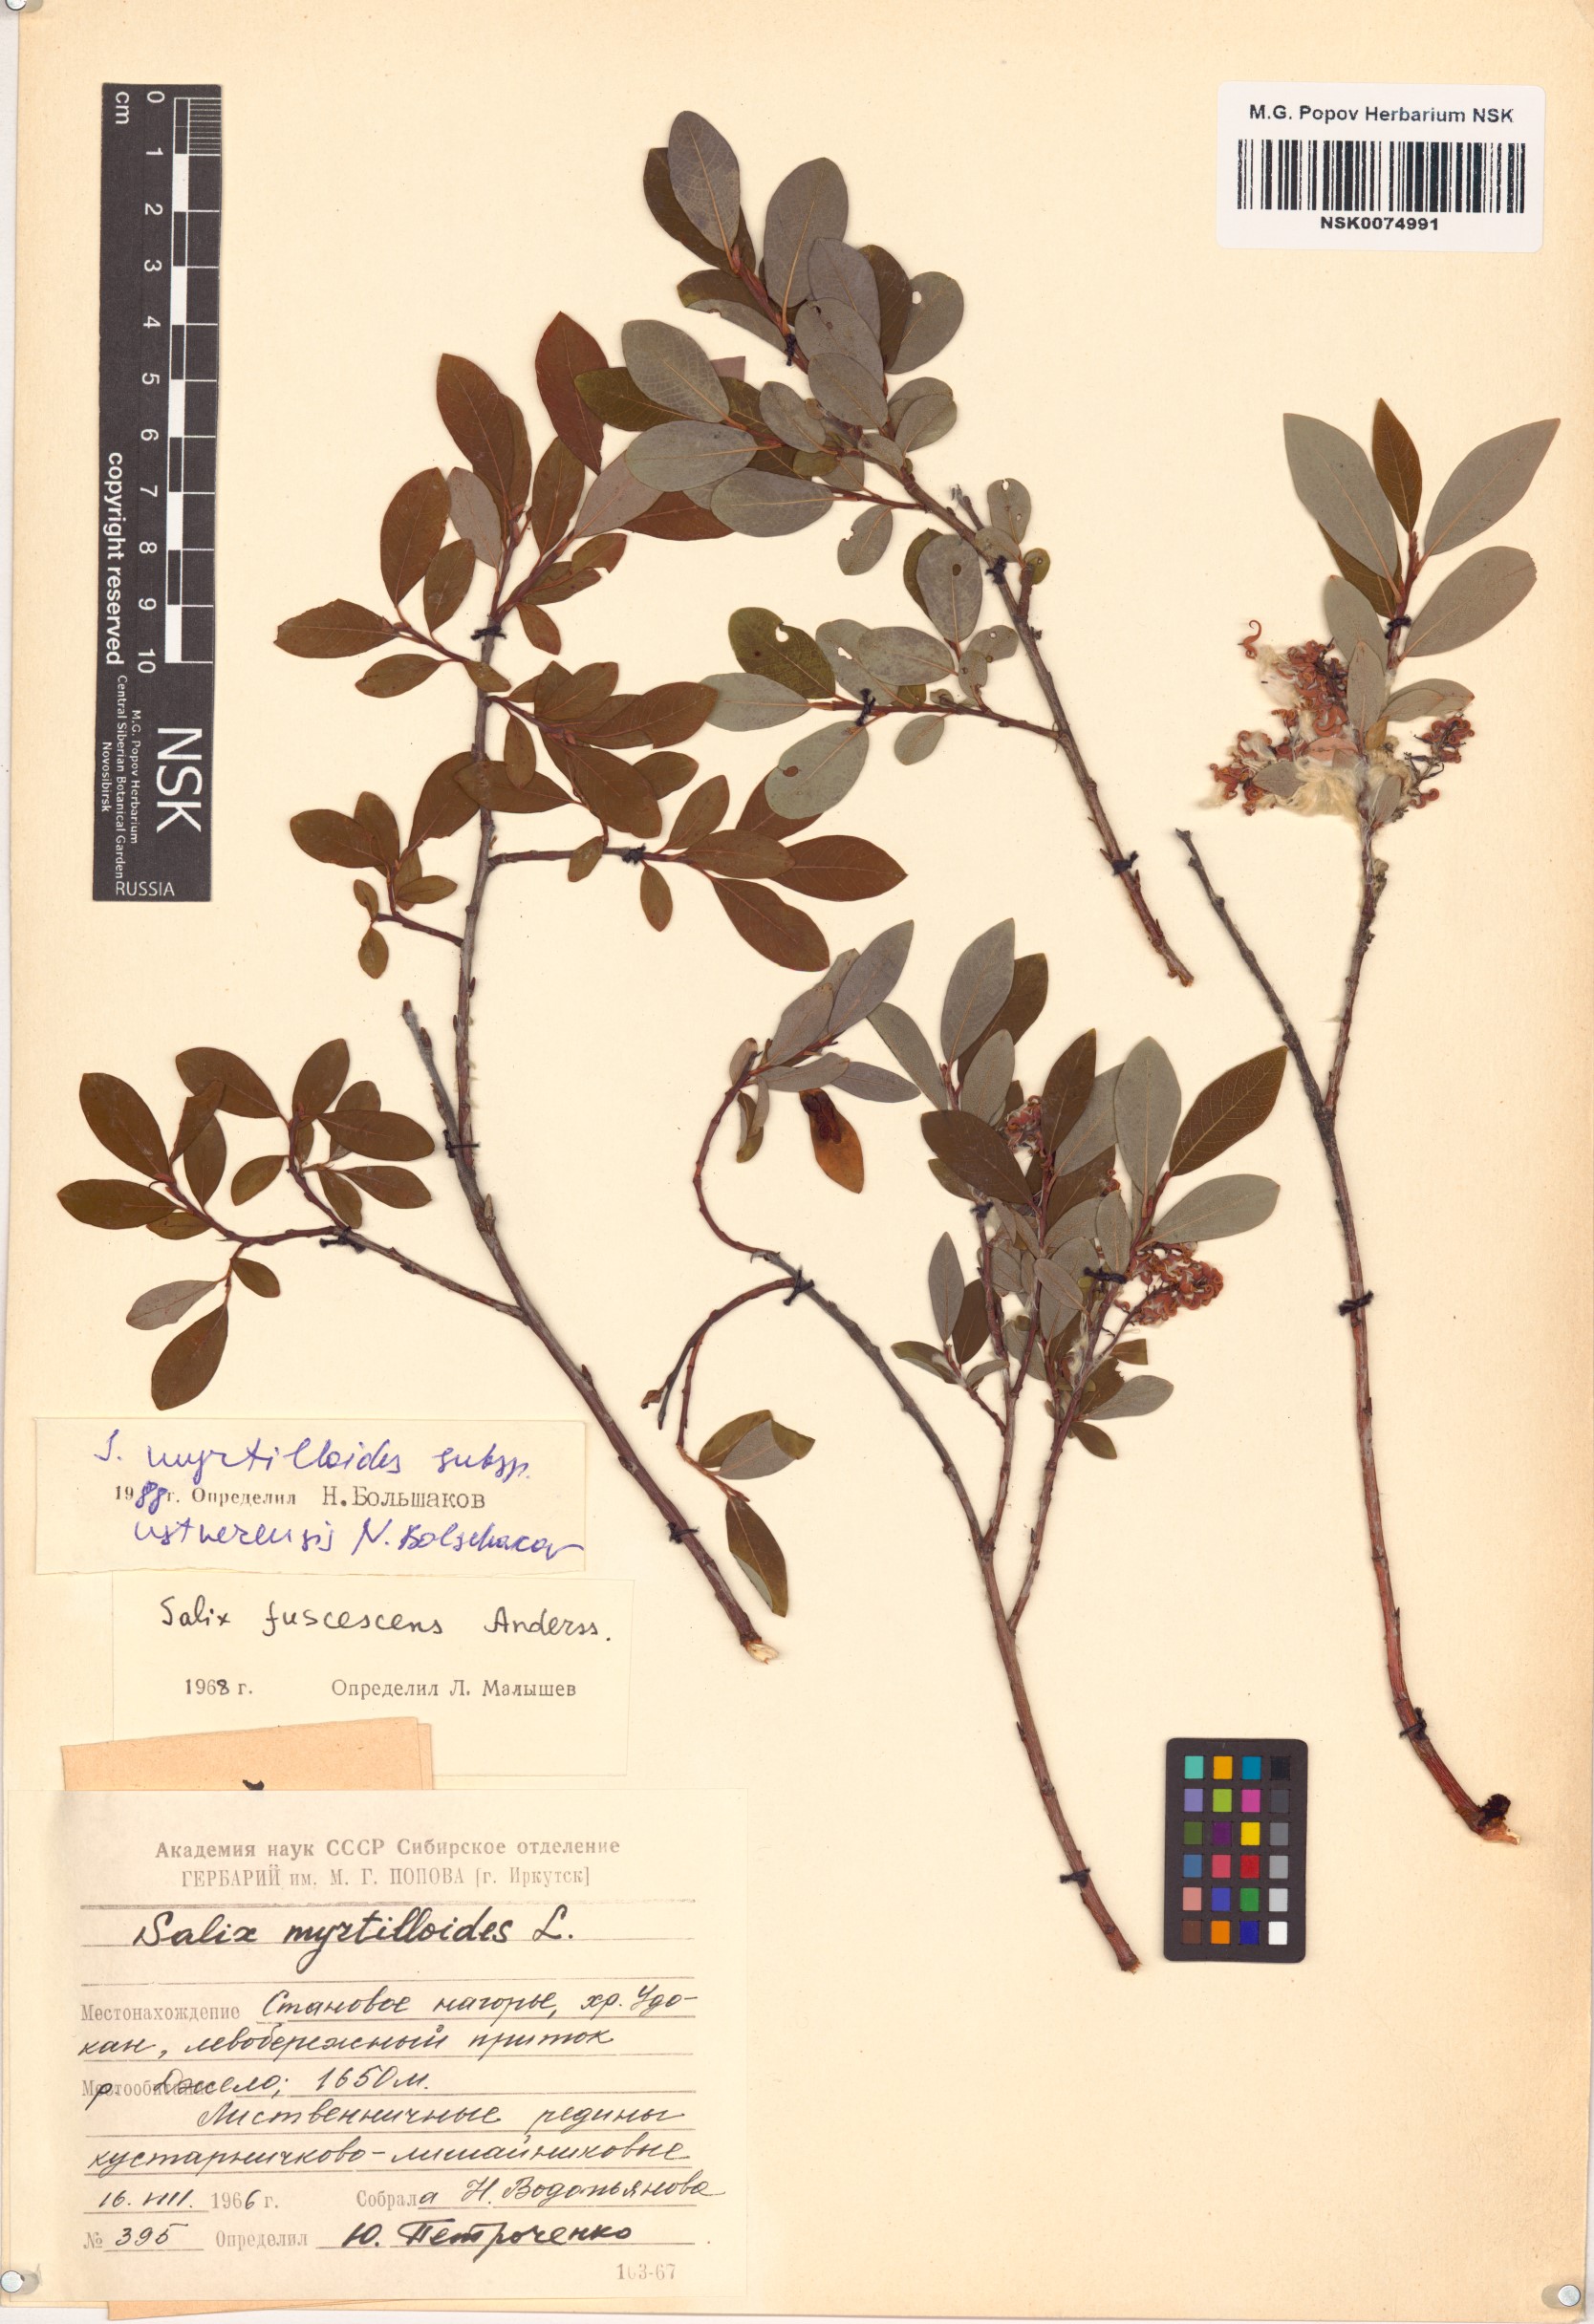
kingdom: Plantae
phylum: Tracheophyta
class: Magnoliopsida
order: Malpighiales
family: Salicaceae
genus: Salix
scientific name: Salix ustnerensis
